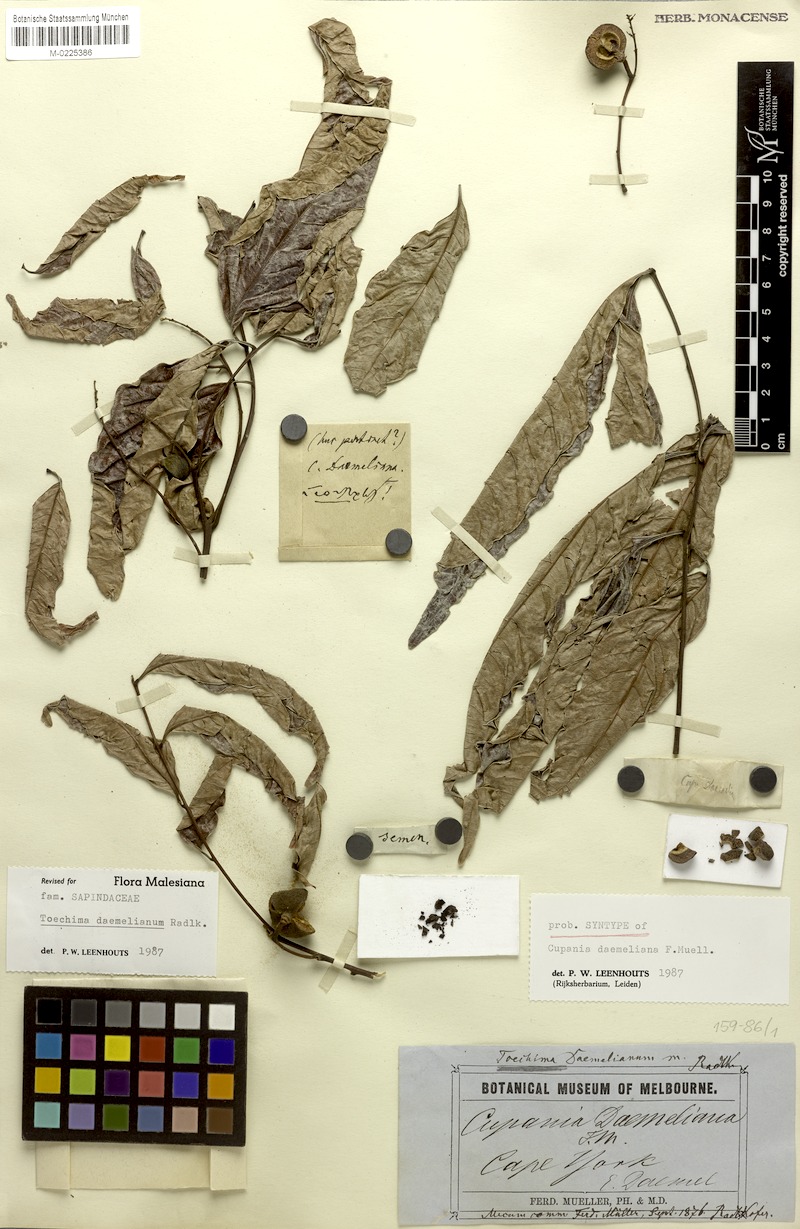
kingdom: Plantae
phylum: Tracheophyta
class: Magnoliopsida
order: Sapindales
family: Sapindaceae
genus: Toechima
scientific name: Toechima daemelianum
